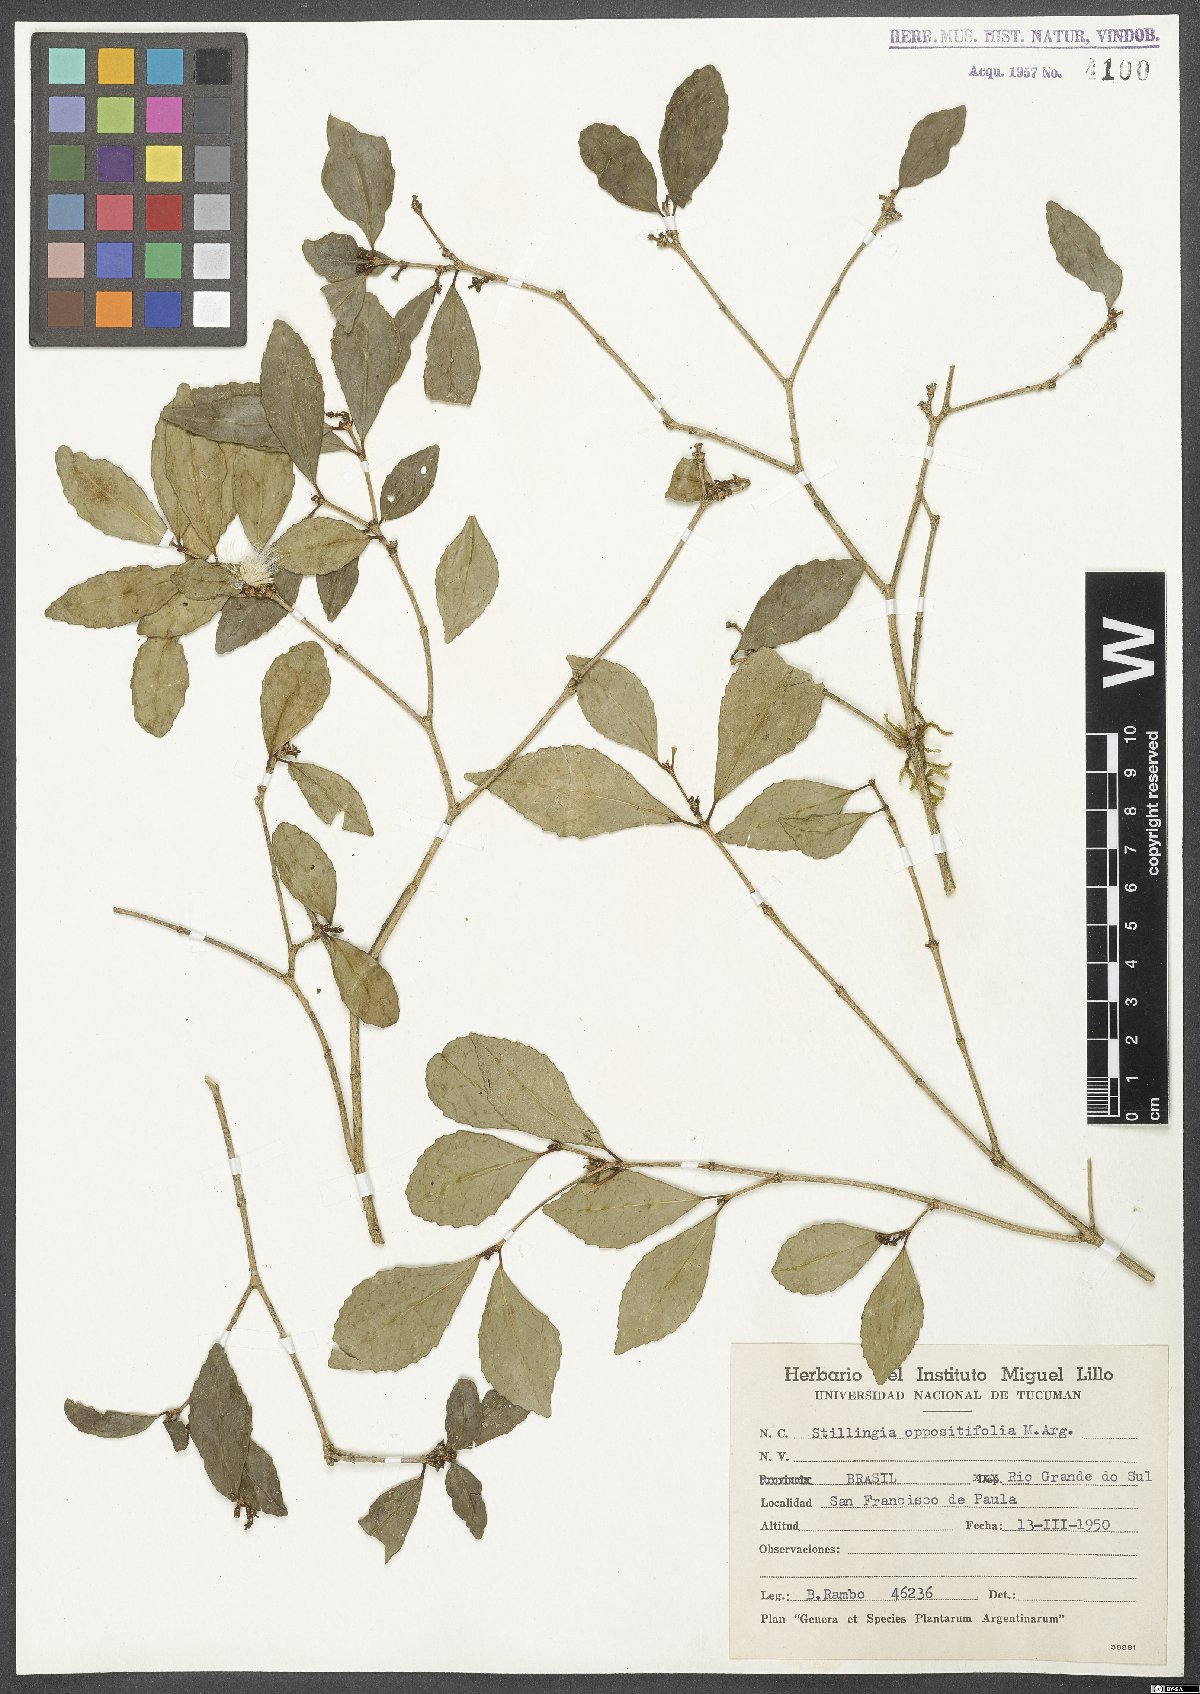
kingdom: Plantae
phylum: Tracheophyta
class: Magnoliopsida
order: Malpighiales
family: Euphorbiaceae
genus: Stillingia
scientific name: Stillingia oppositifolia
